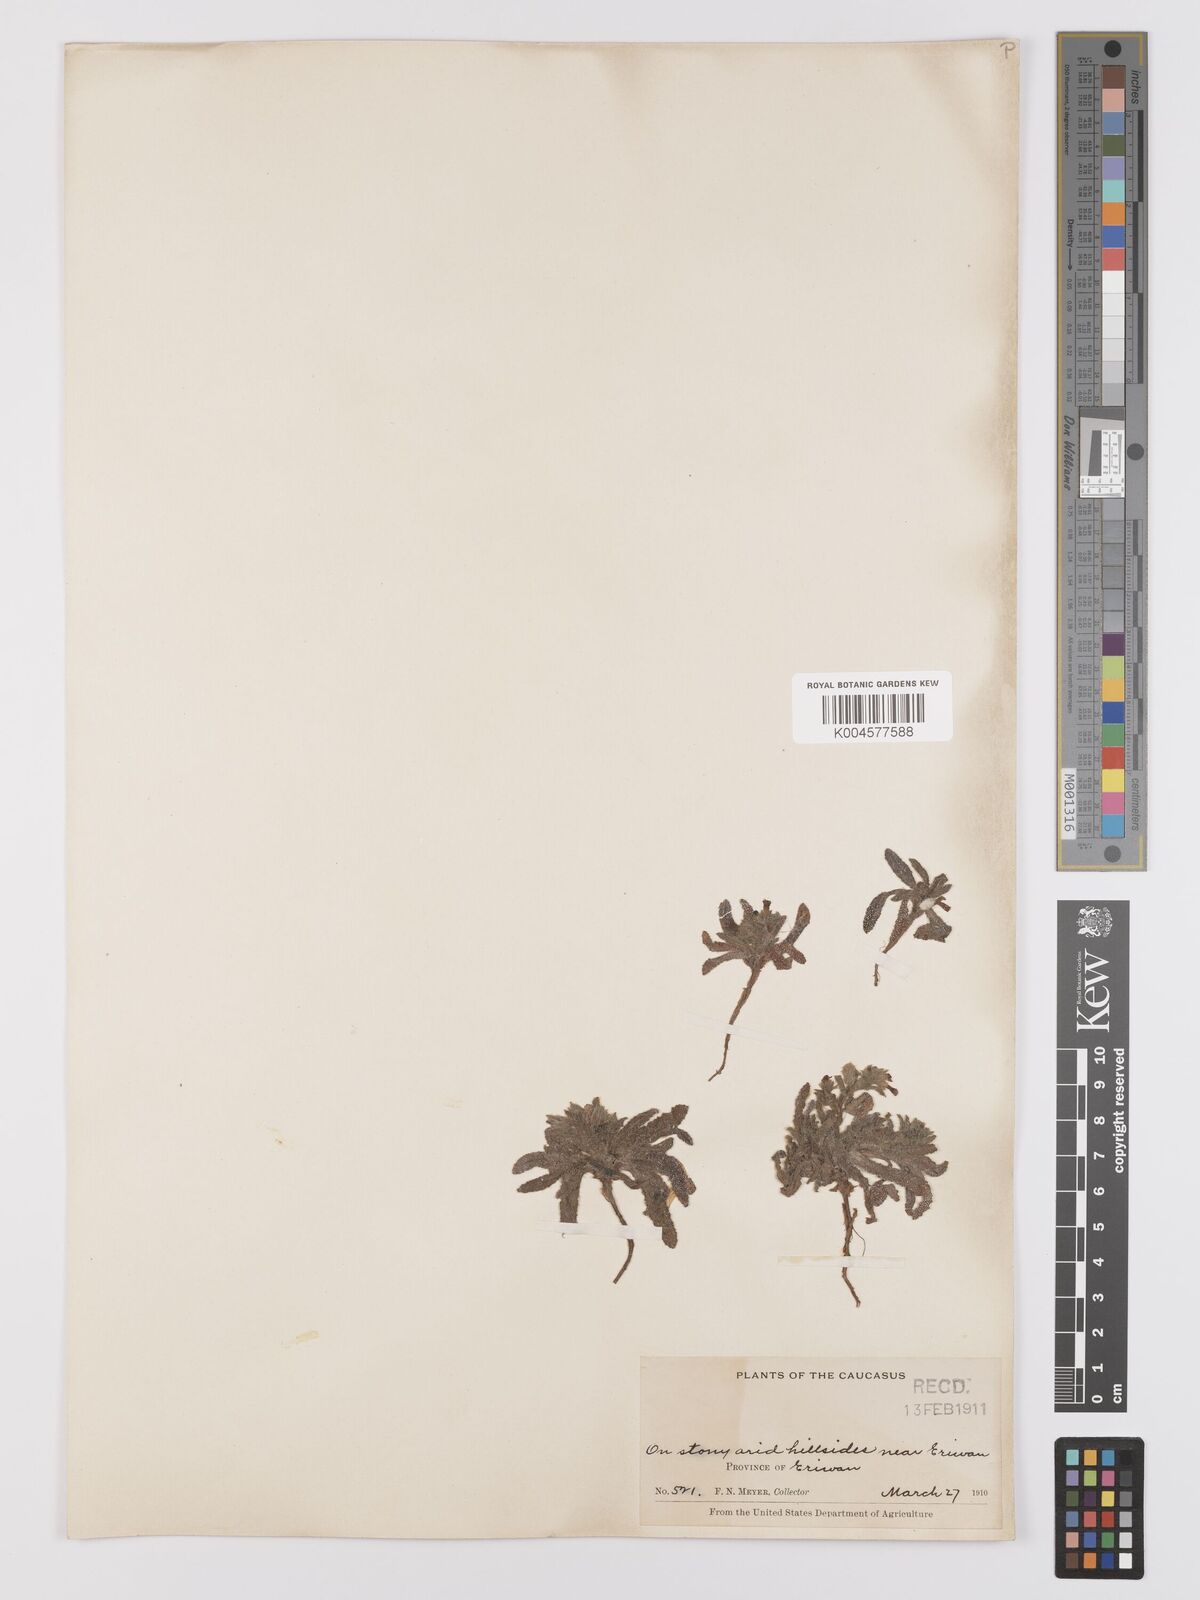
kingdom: Plantae
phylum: Tracheophyta
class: Magnoliopsida
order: Boraginales
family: Boraginaceae
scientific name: Boraginaceae
